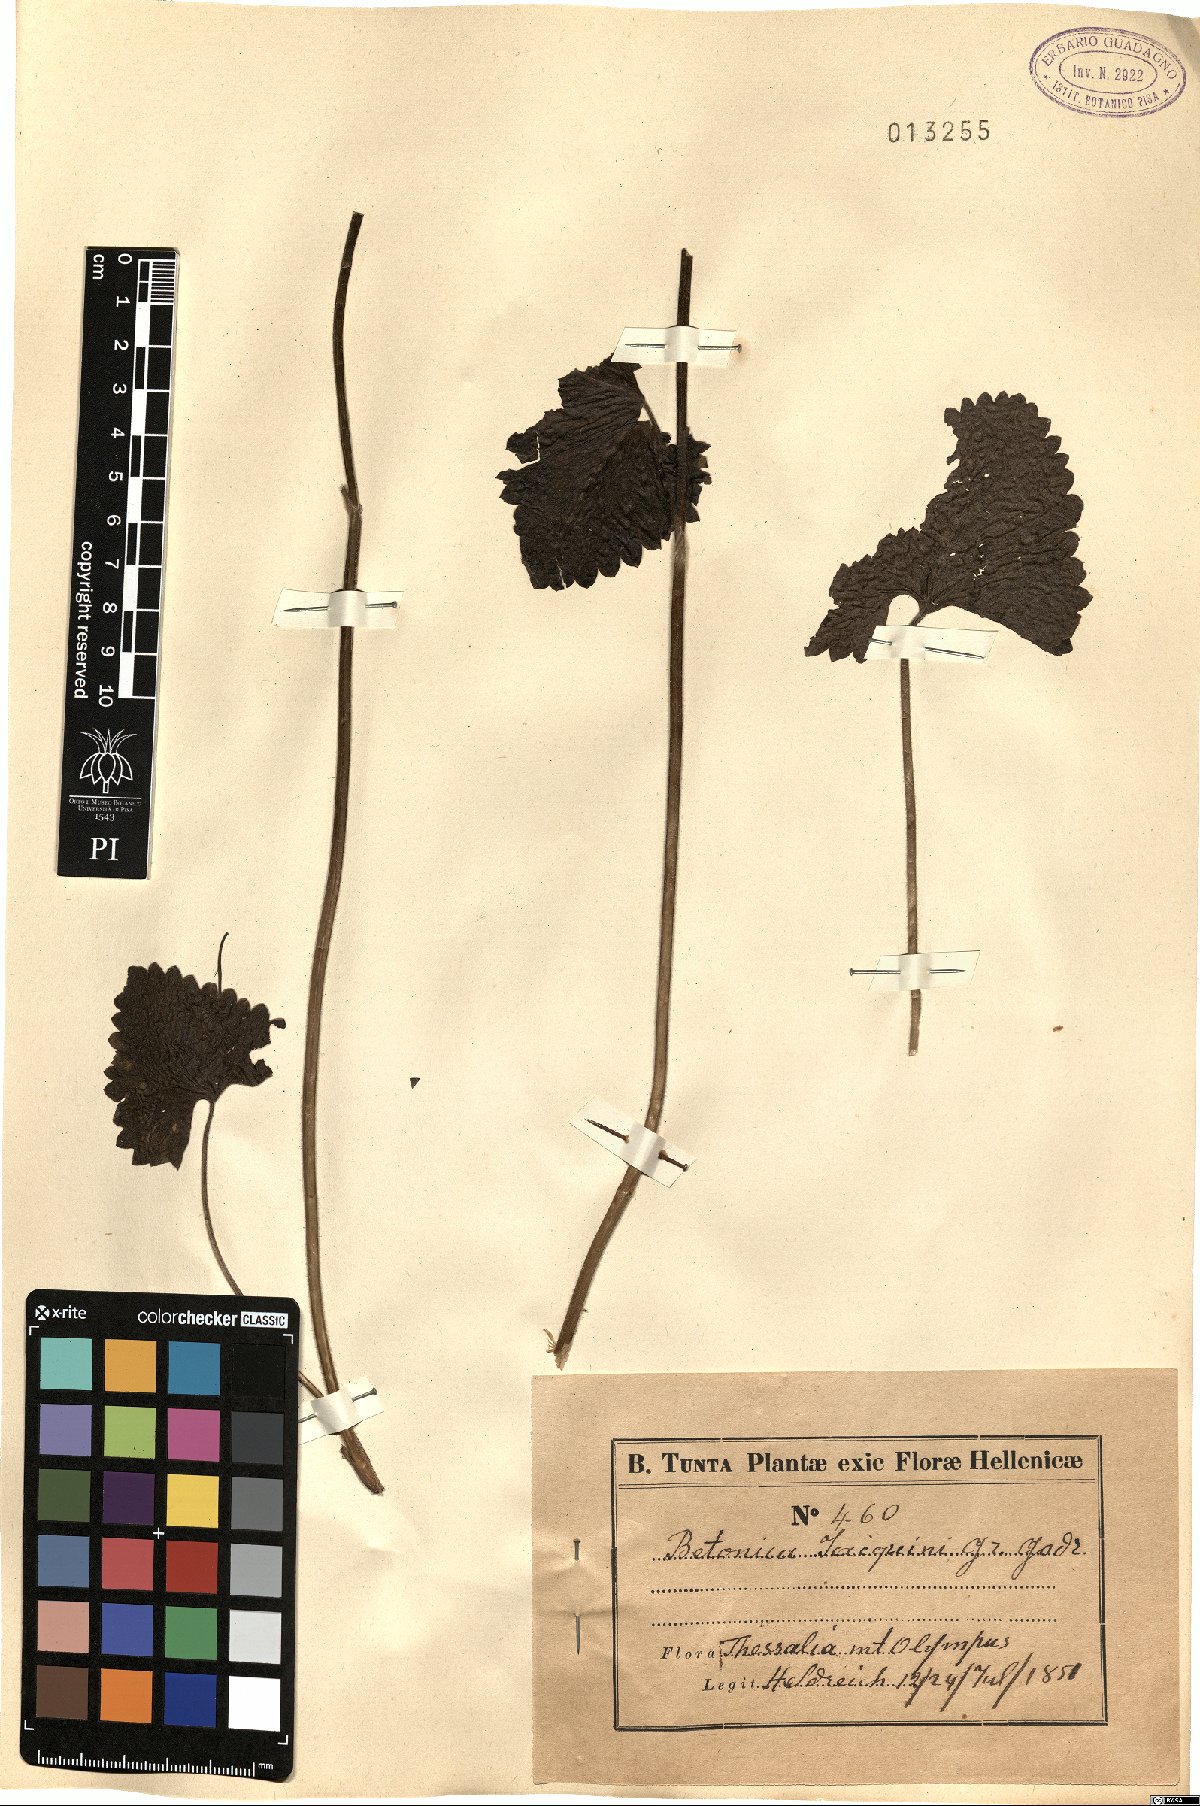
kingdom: Plantae
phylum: Tracheophyta
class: Magnoliopsida
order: Lamiales
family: Lamiaceae
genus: Betonica
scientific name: Betonica alopecuros
